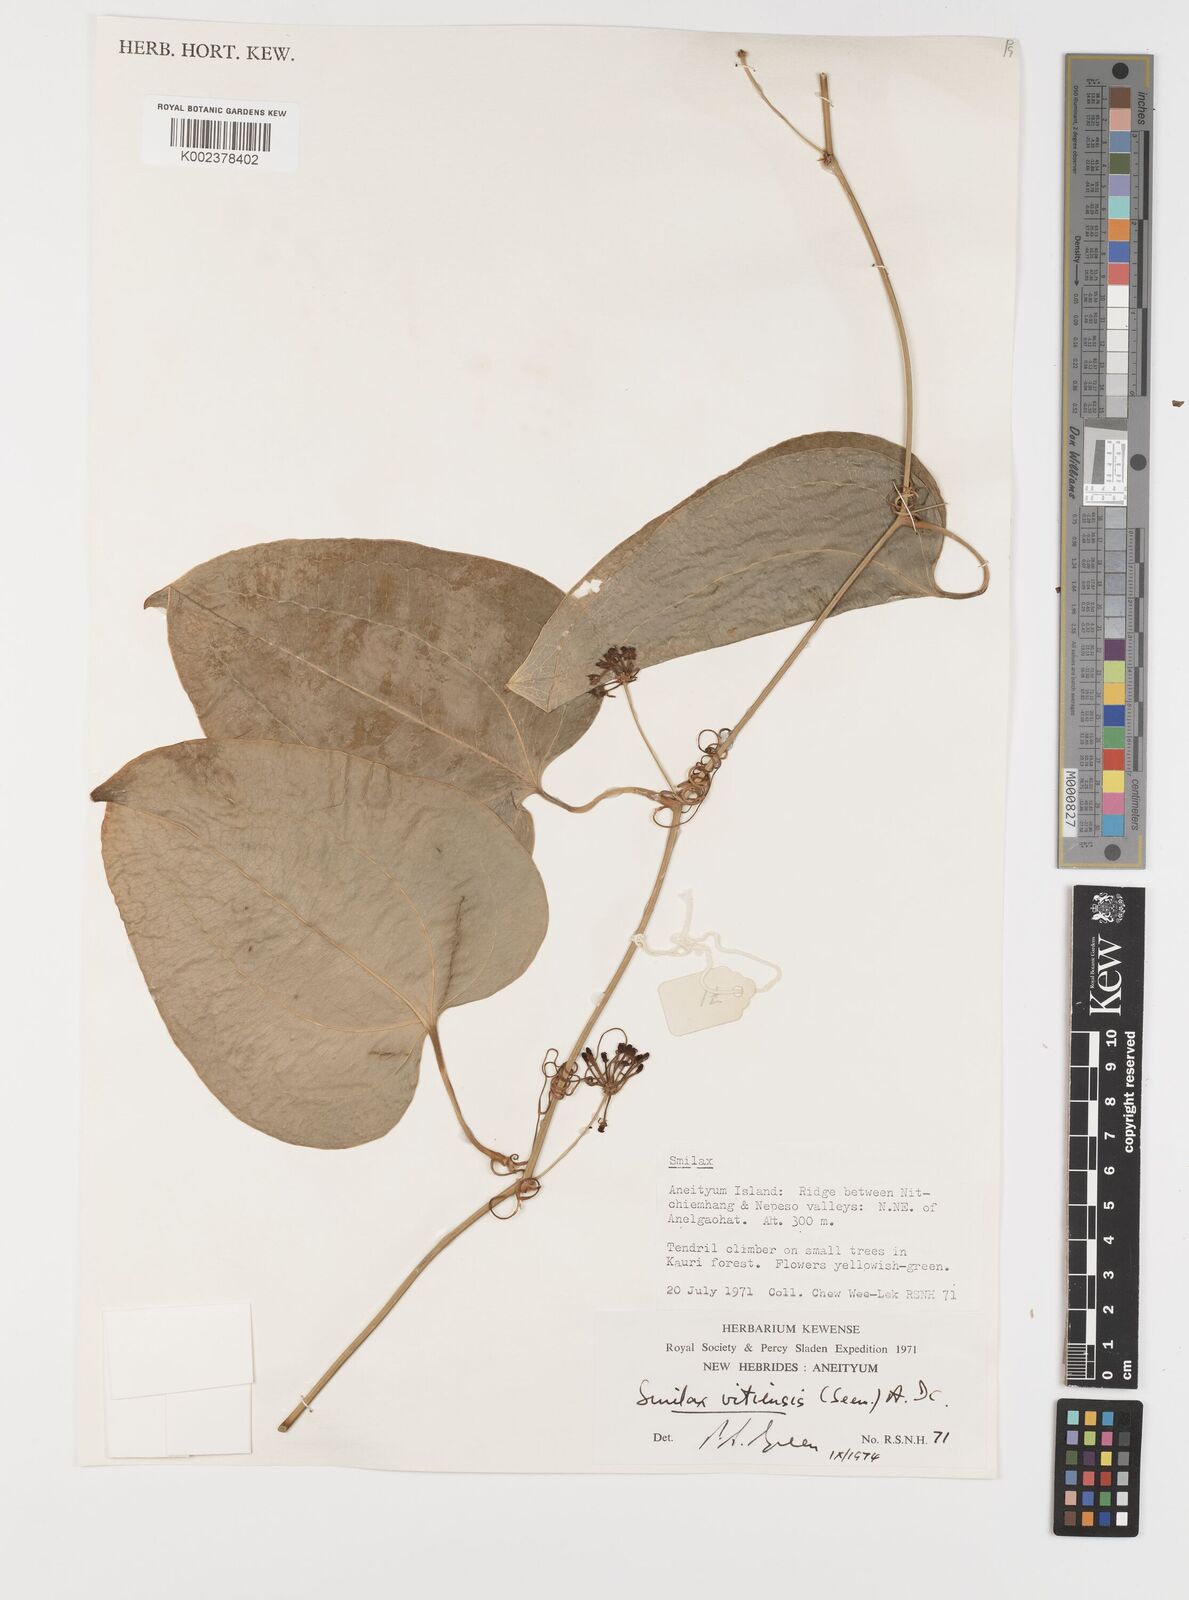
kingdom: Plantae
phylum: Tracheophyta
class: Liliopsida
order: Liliales
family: Smilacaceae
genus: Smilax
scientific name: Smilax vitiensis
